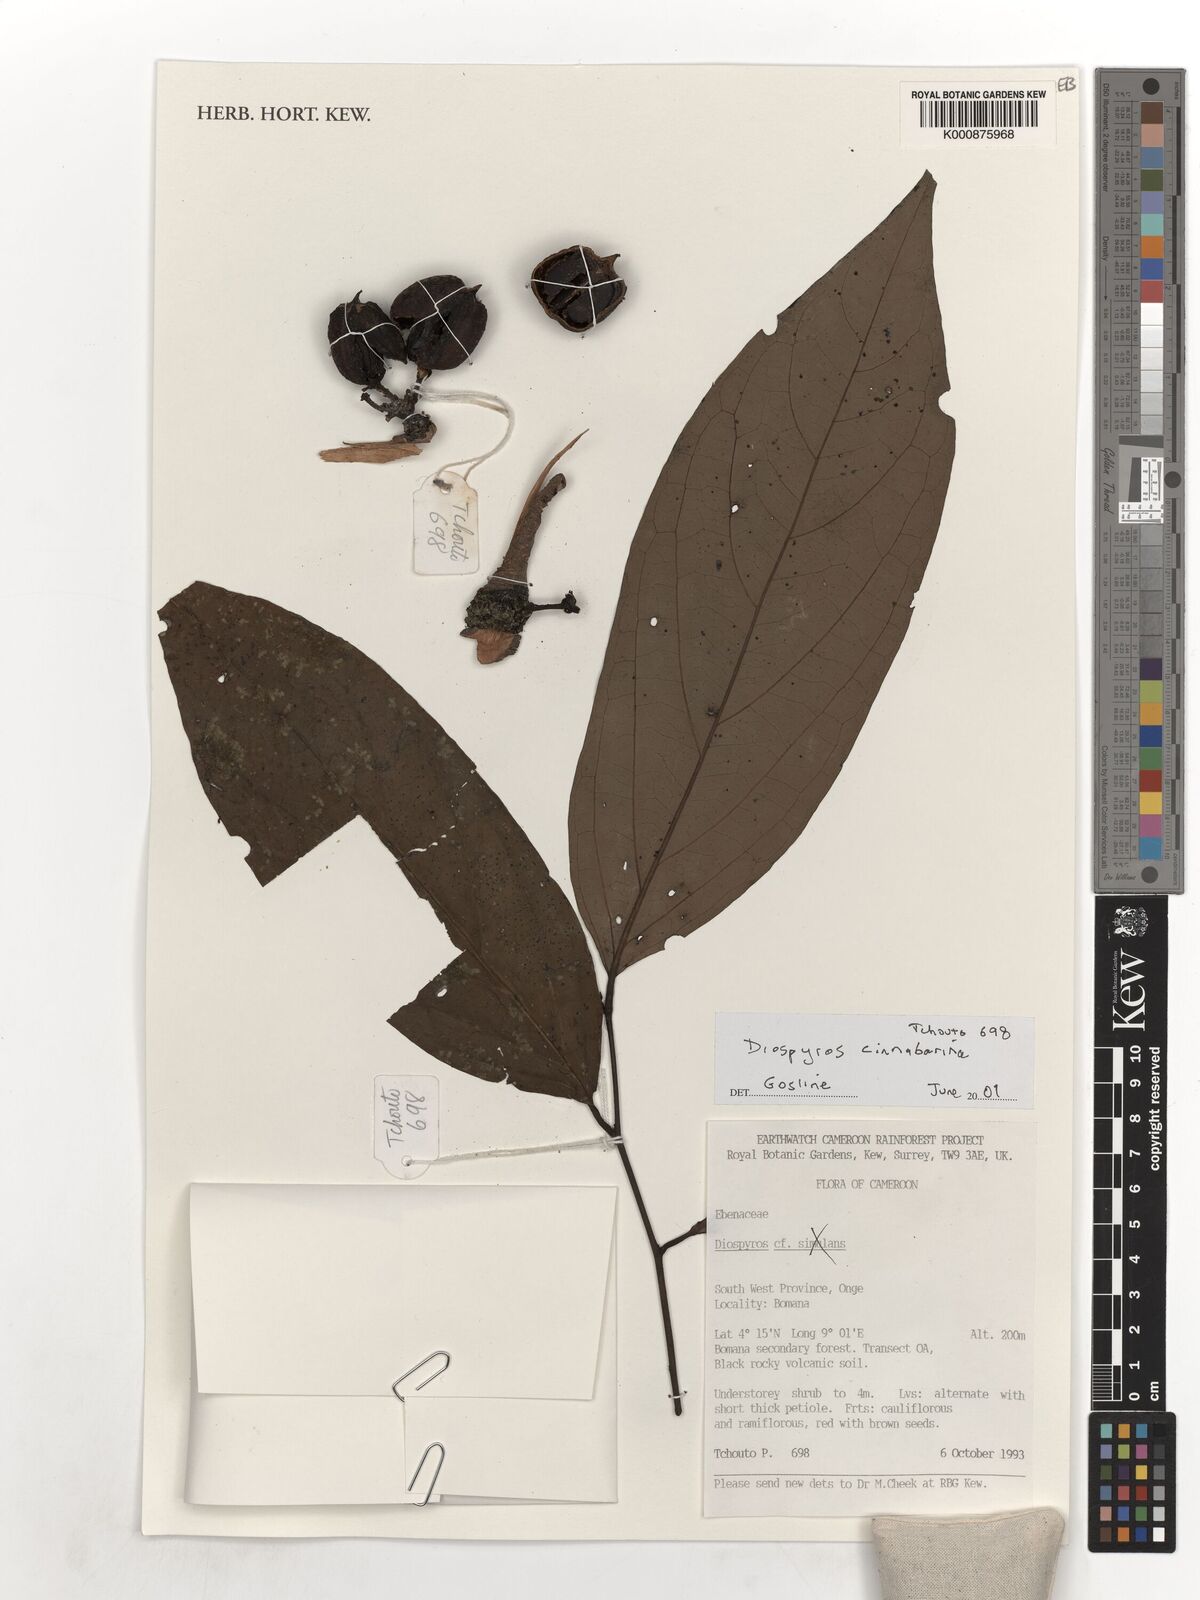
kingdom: Plantae
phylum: Tracheophyta
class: Magnoliopsida
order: Ericales
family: Ebenaceae
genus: Diospyros
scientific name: Diospyros cinnabarina
